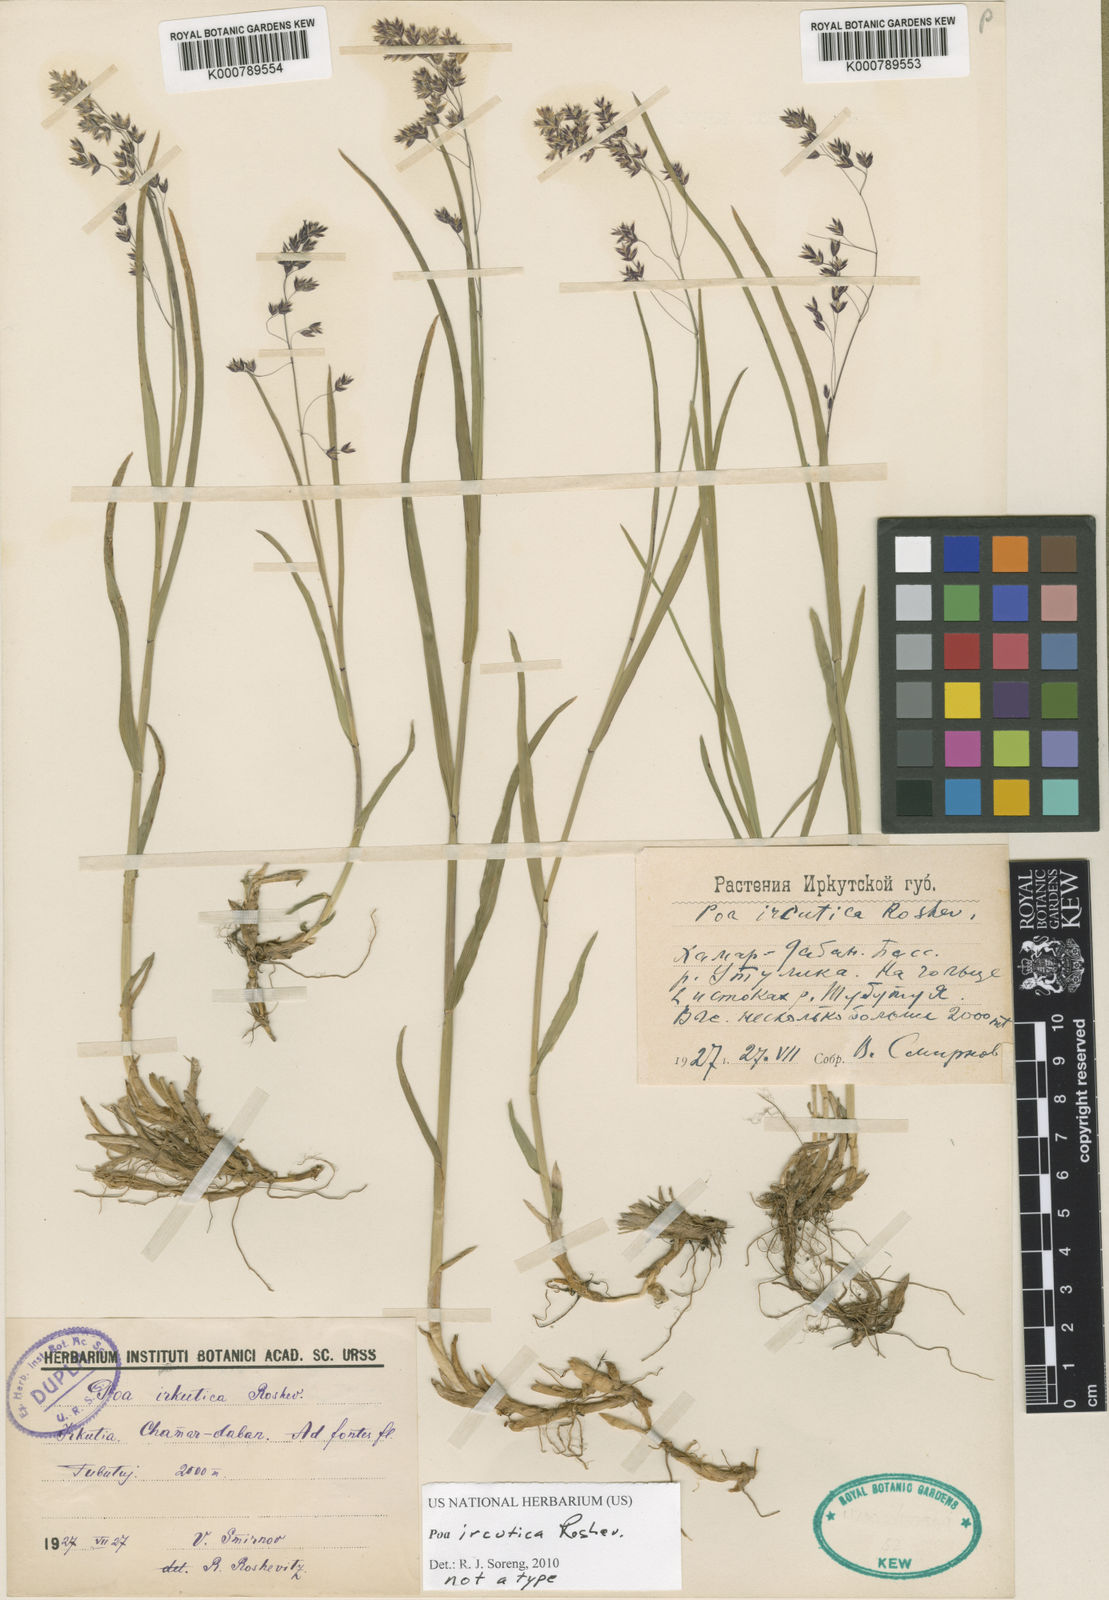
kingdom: Plantae
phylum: Tracheophyta
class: Liliopsida
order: Poales
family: Poaceae
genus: Poa
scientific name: Poa
